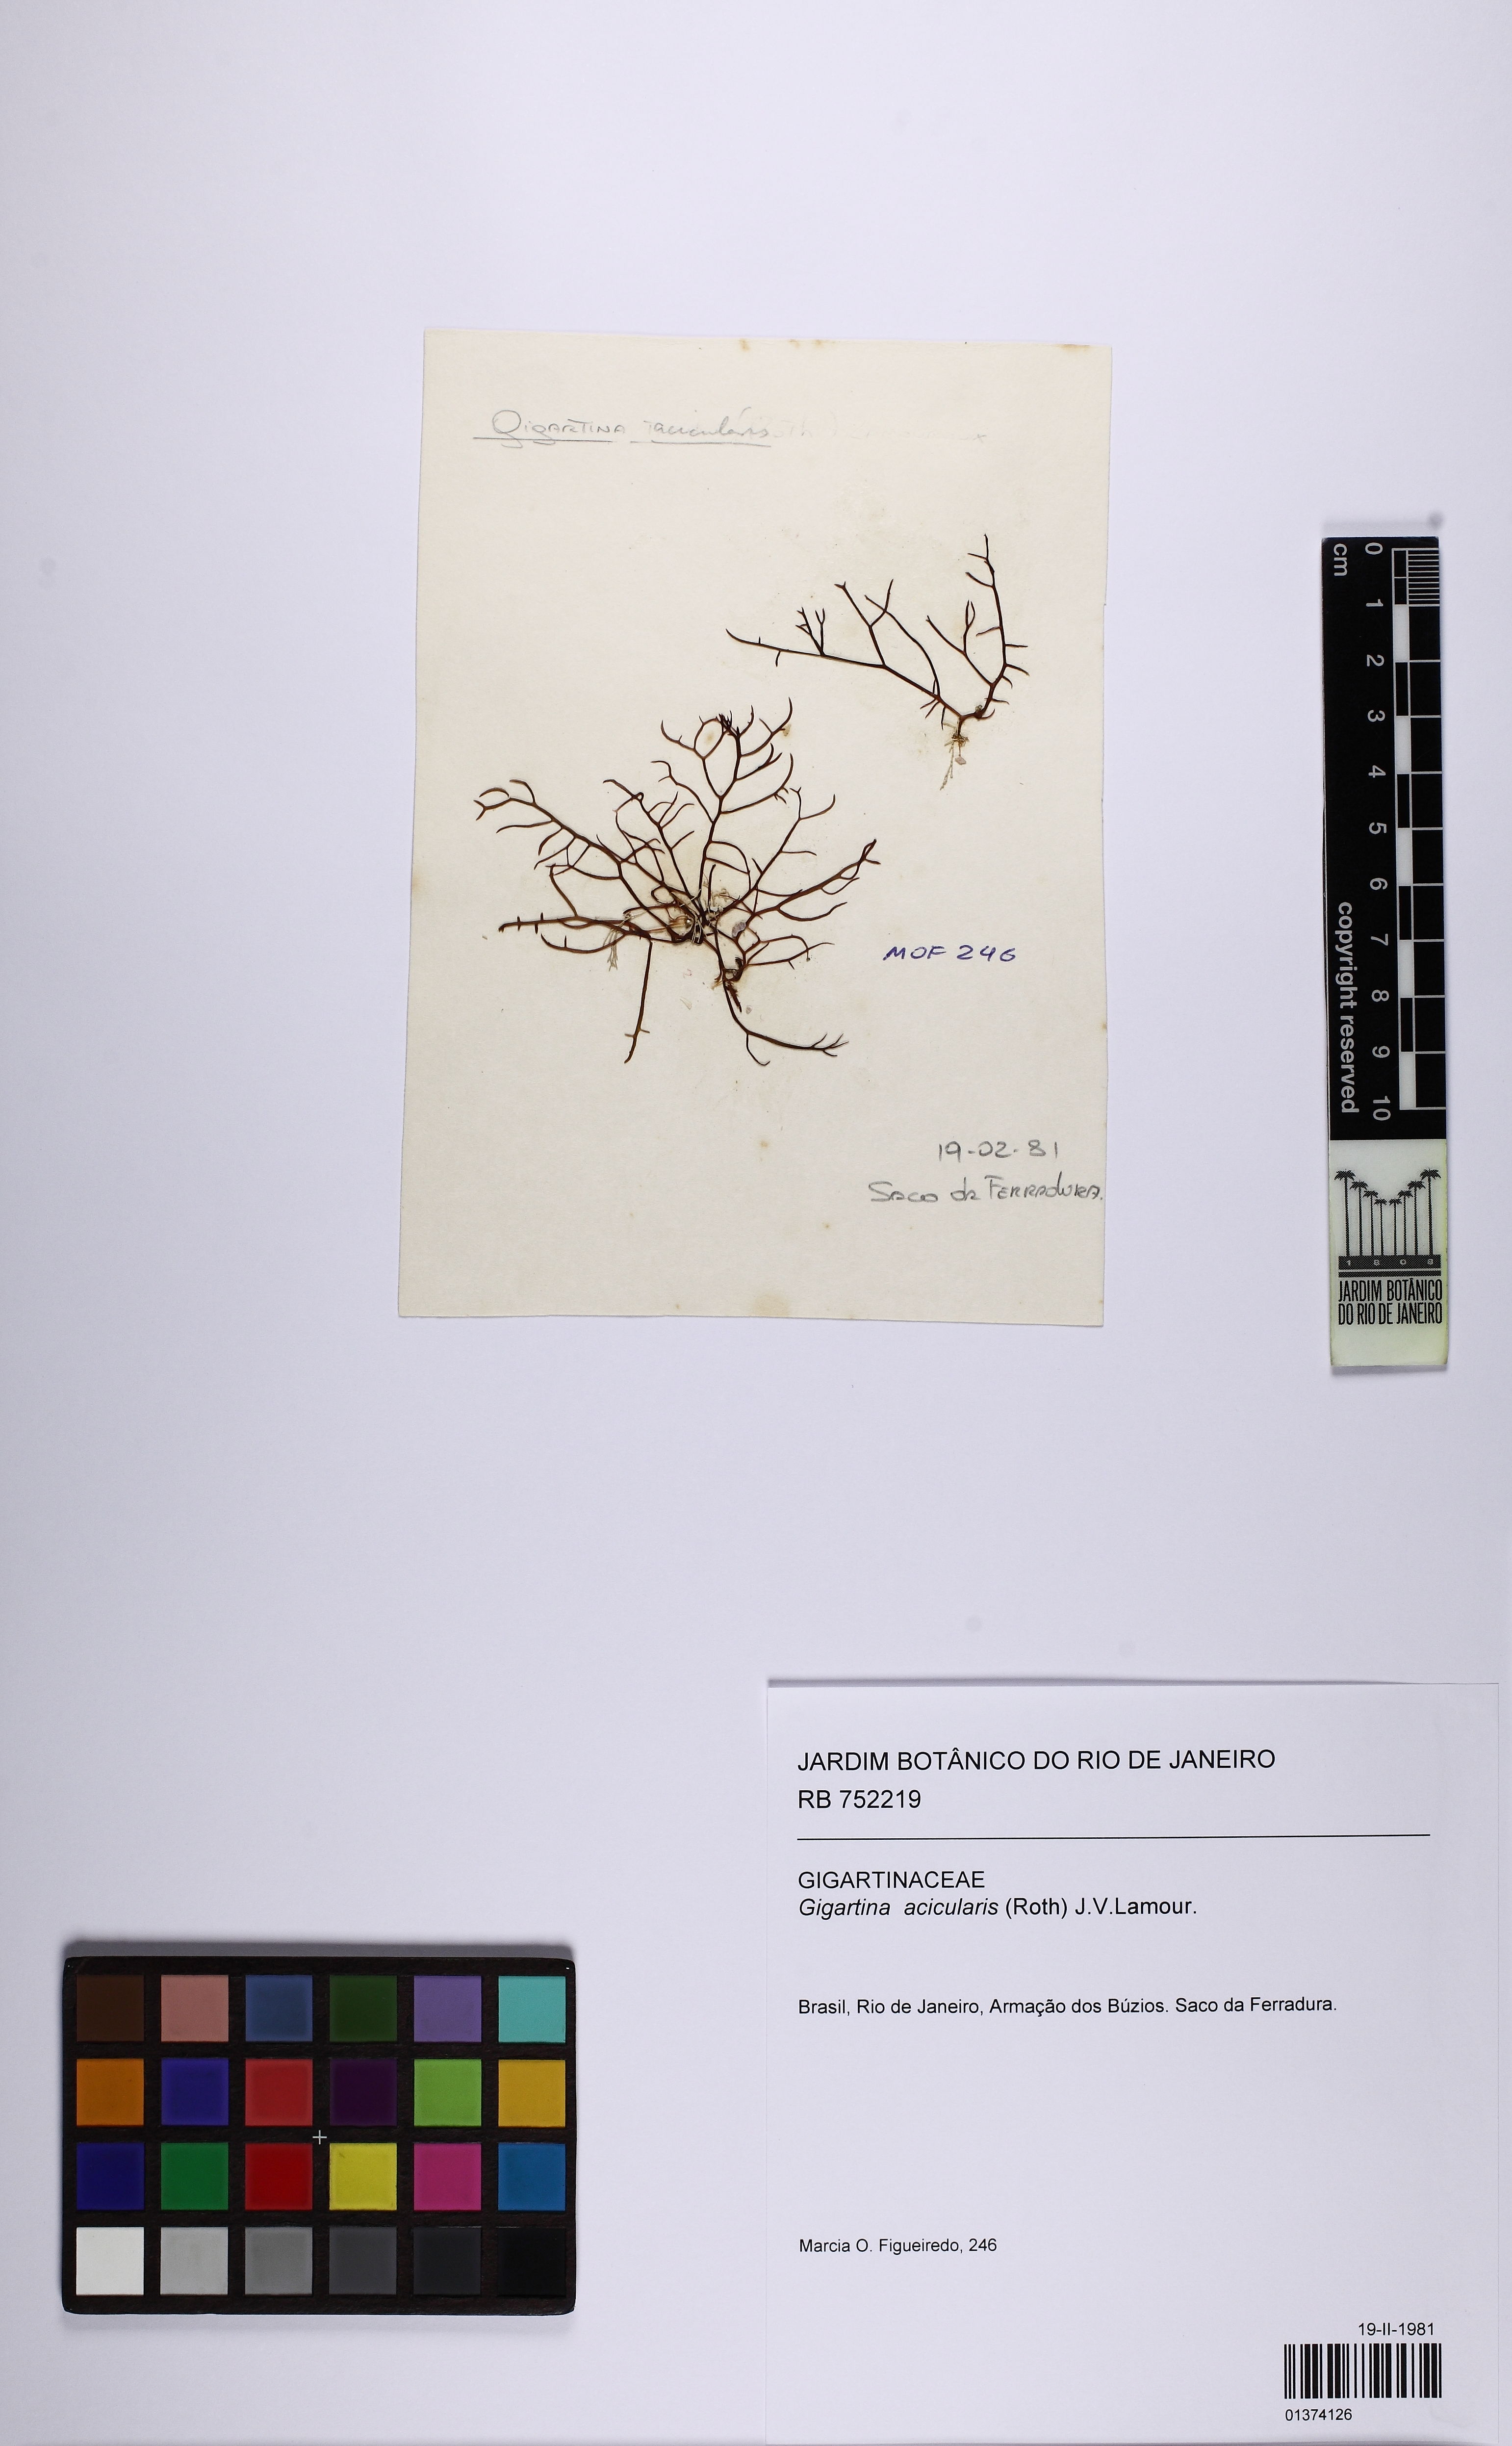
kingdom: Plantae
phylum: Rhodophyta
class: Florideophyceae
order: Gigartinales
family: Gigartinaceae
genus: Chondracanthus
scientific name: Chondracanthus acicularis
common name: Creephorn
